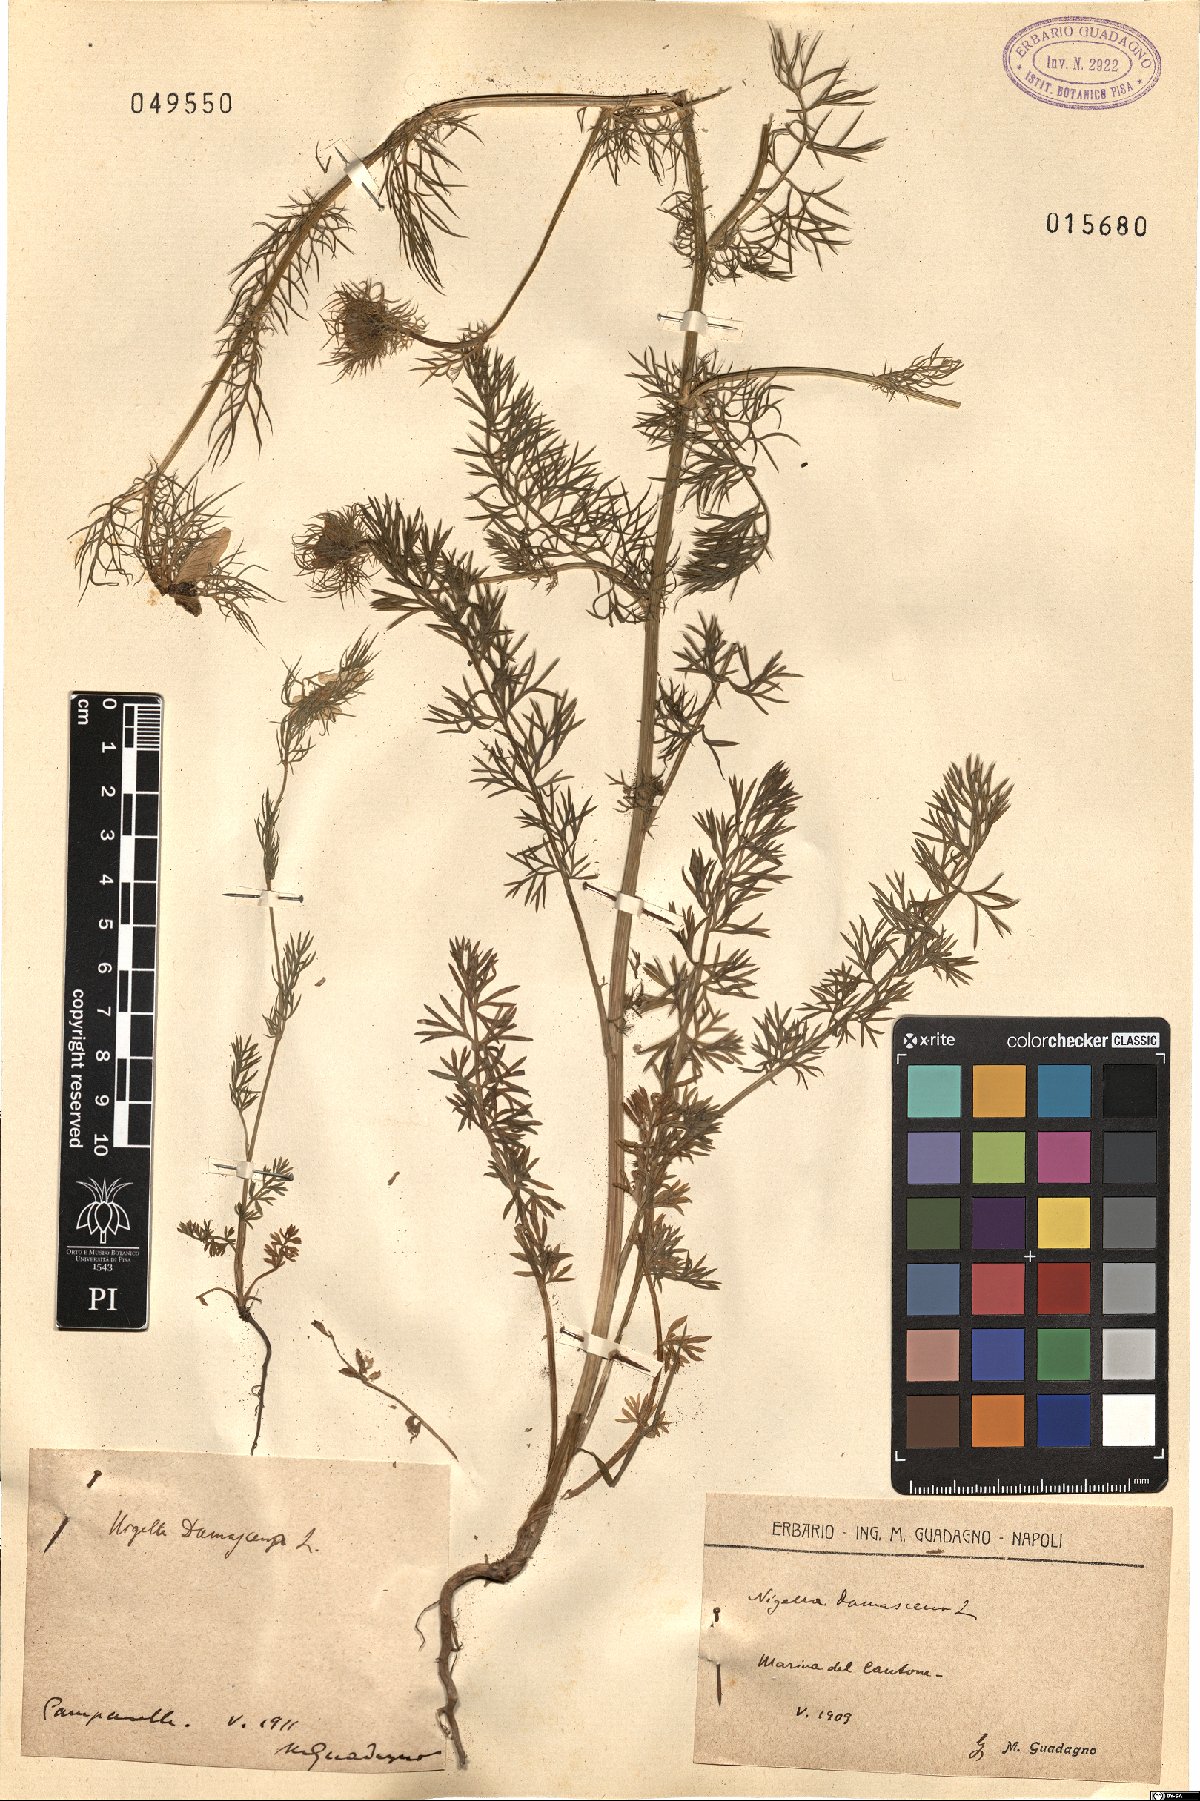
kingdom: Plantae
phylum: Tracheophyta
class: Magnoliopsida
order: Ranunculales
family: Ranunculaceae
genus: Nigella
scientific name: Nigella damascena
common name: Love-in-a-mist
